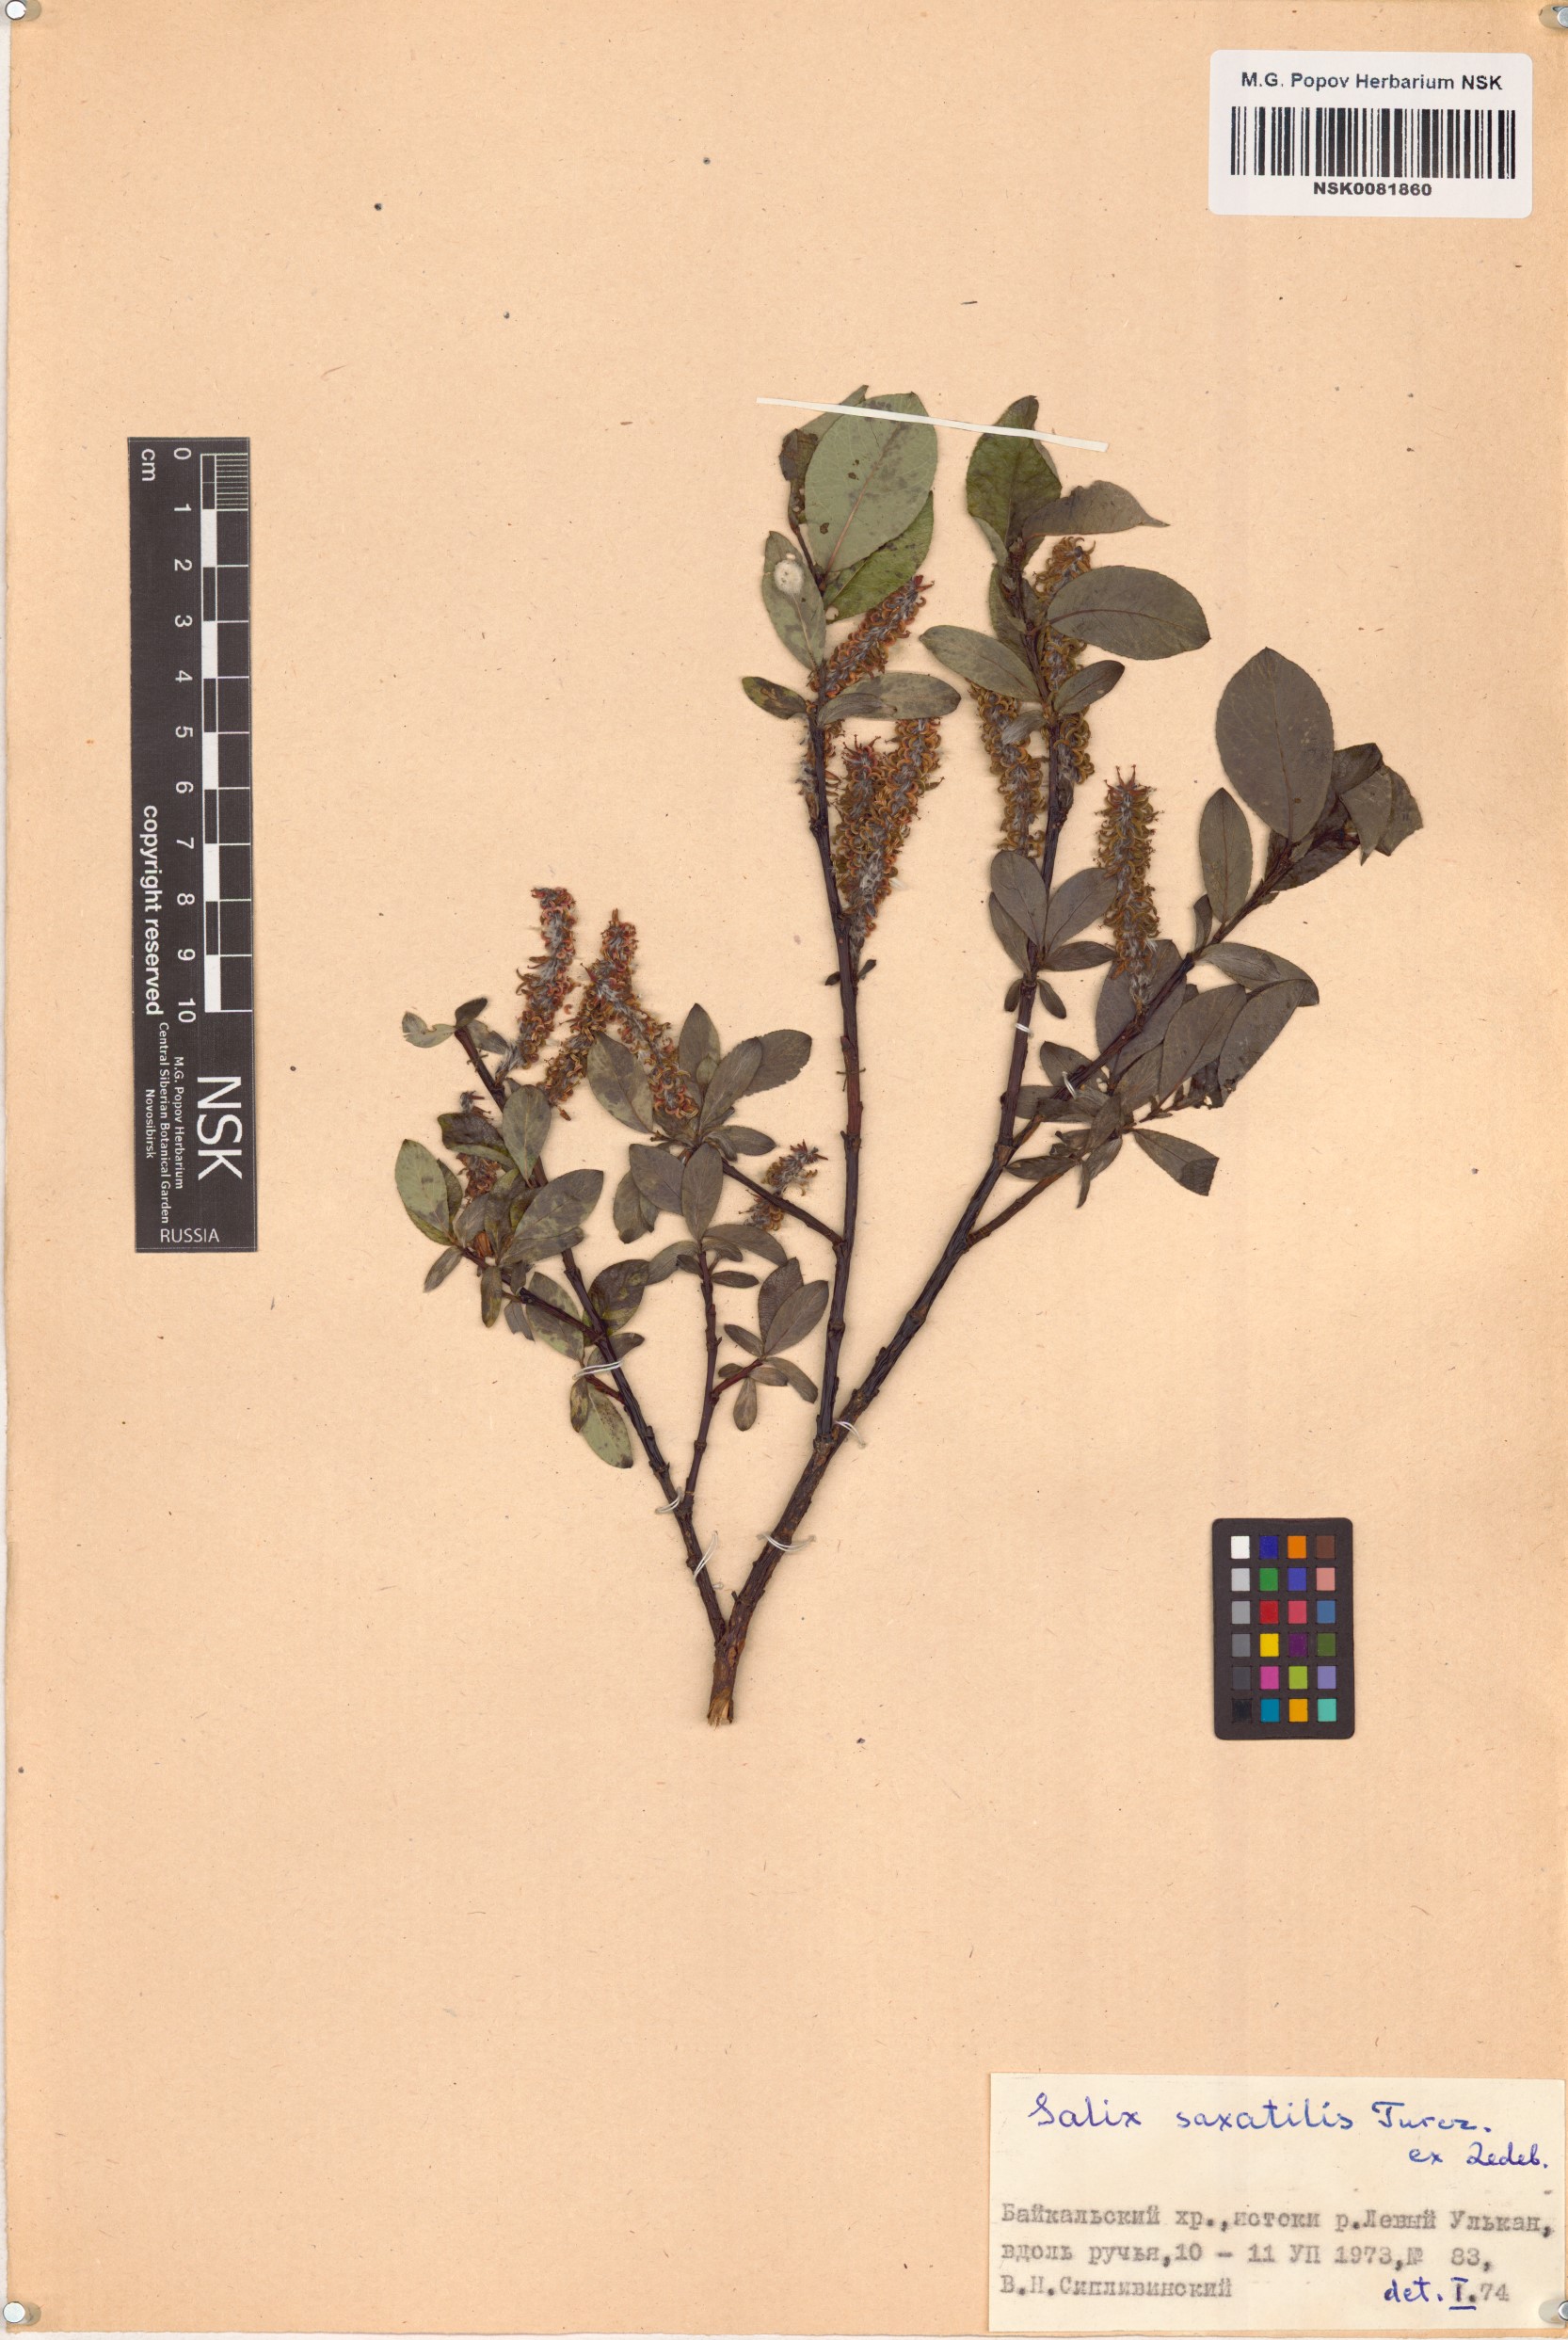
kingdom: Plantae
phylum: Tracheophyta
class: Magnoliopsida
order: Malpighiales
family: Salicaceae
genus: Salix
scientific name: Salix saxatilis
